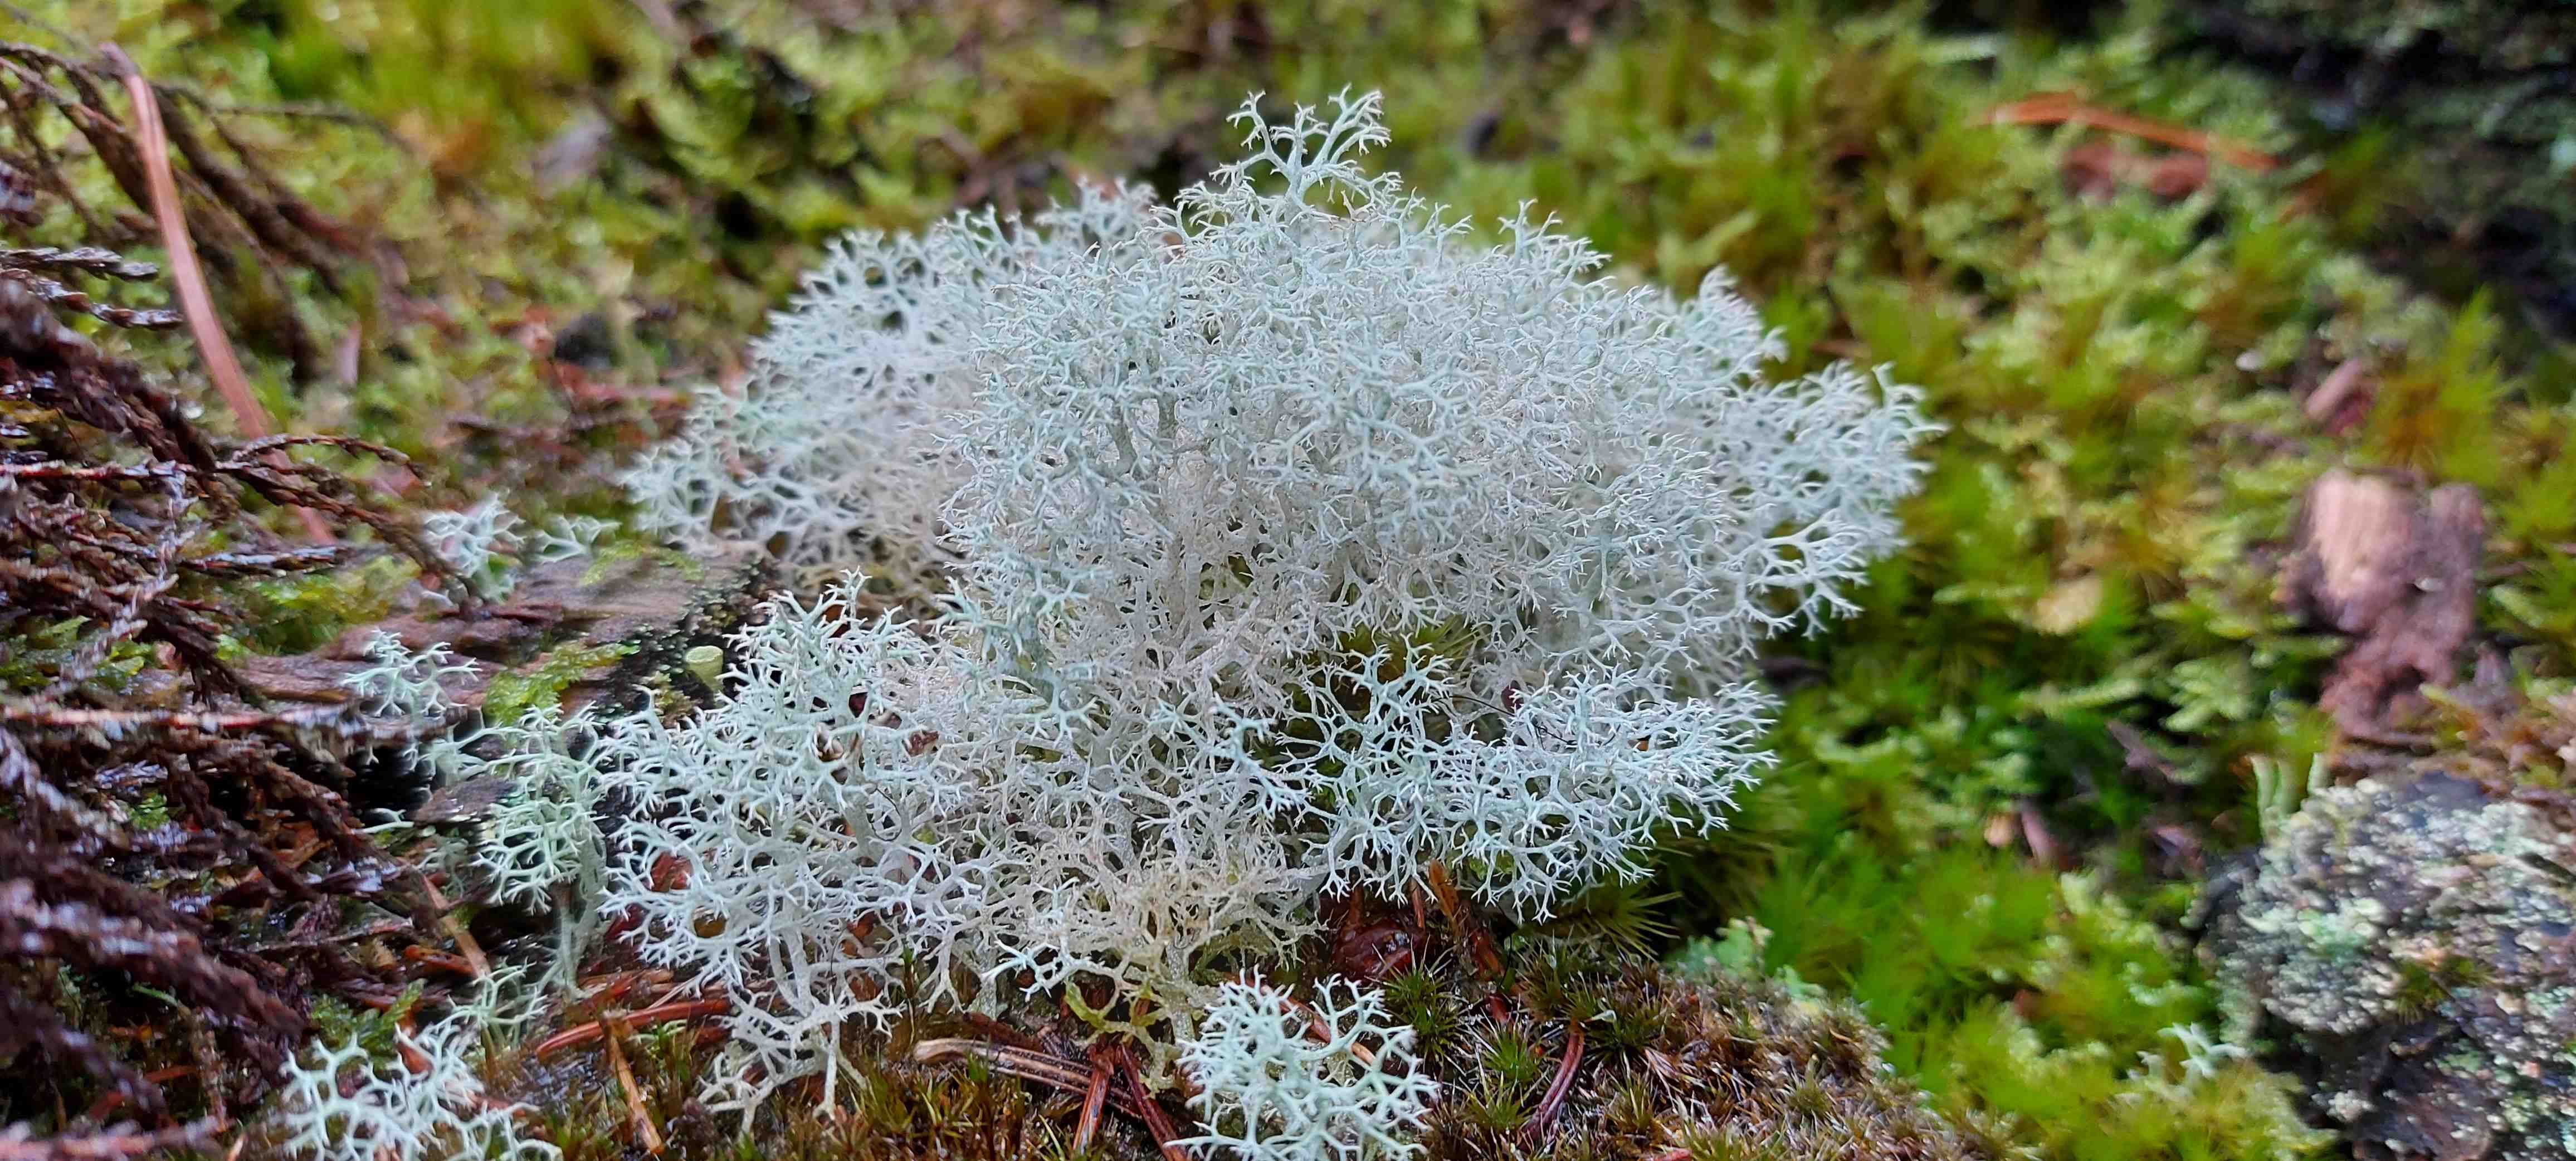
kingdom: Fungi
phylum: Ascomycota
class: Lecanoromycetes
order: Lecanorales
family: Cladoniaceae
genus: Cladonia
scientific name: Cladonia portentosa
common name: hede-rensdyrlav
